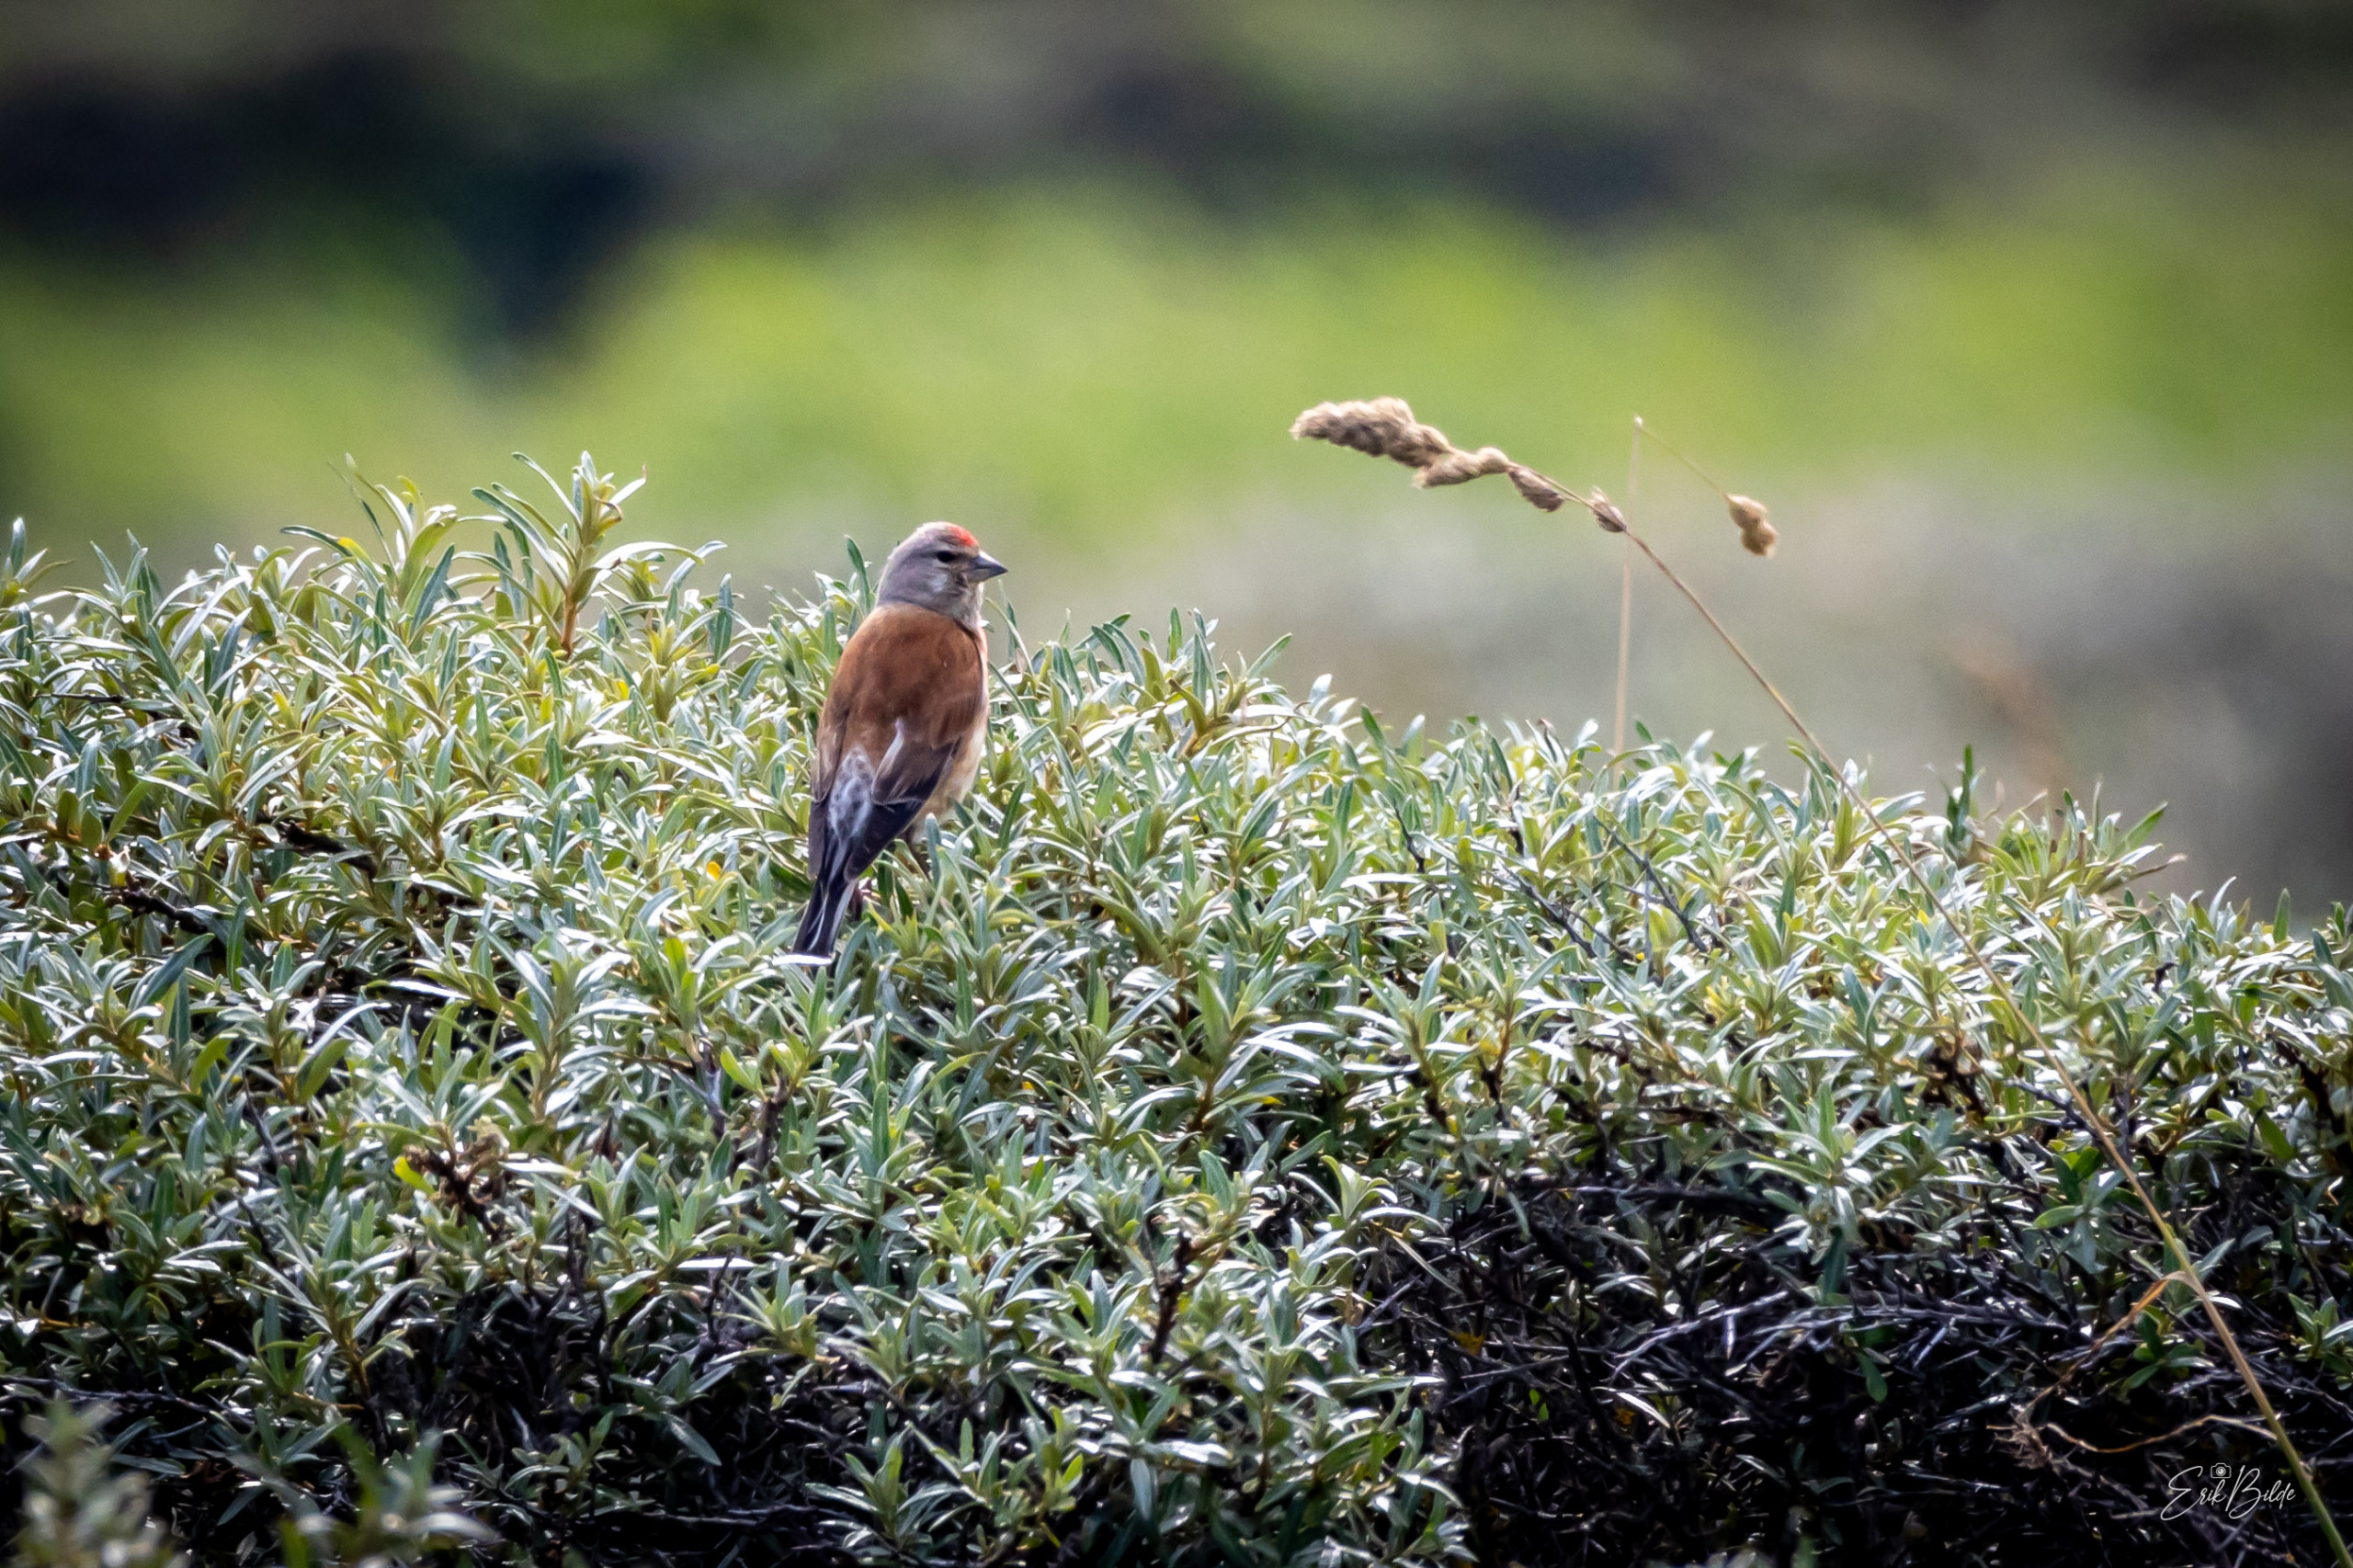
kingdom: Animalia
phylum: Chordata
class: Aves
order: Passeriformes
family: Fringillidae
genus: Linaria
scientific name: Linaria cannabina
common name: Tornirisk
